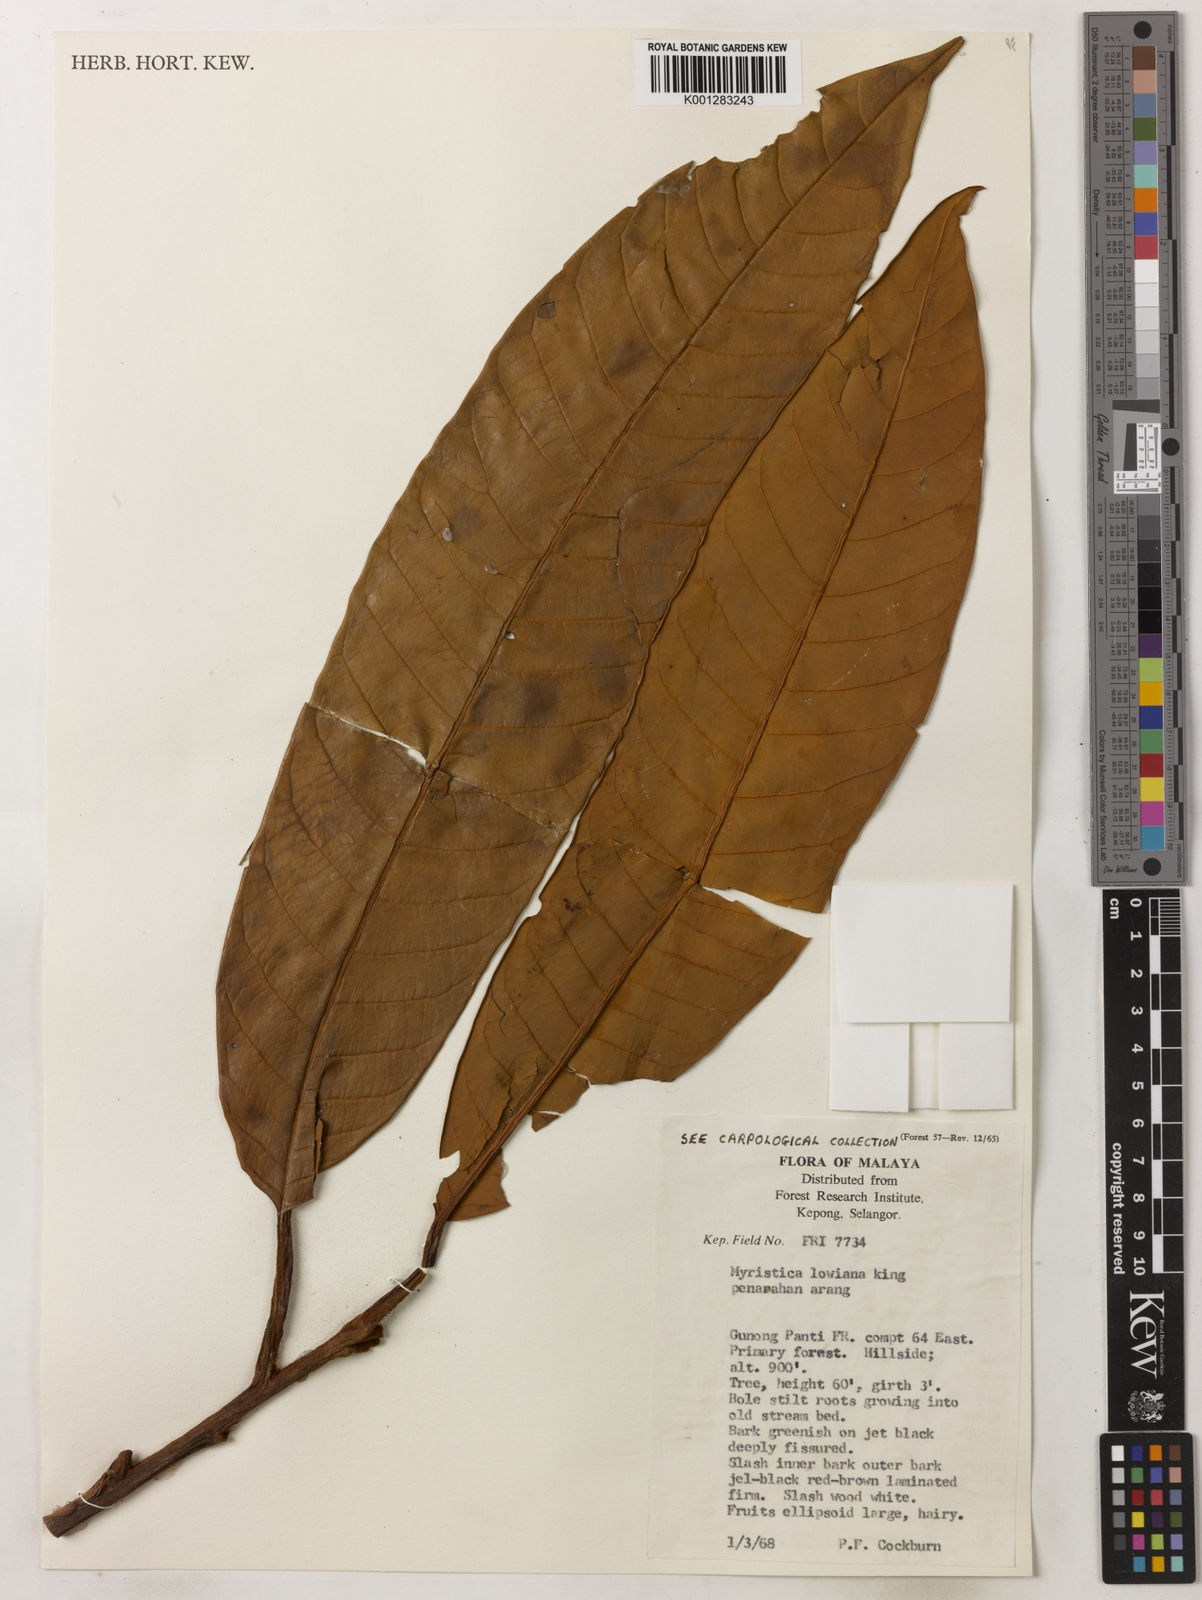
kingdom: Plantae
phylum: Tracheophyta
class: Magnoliopsida
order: Magnoliales
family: Myristicaceae
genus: Myristica
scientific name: Myristica lowiana
